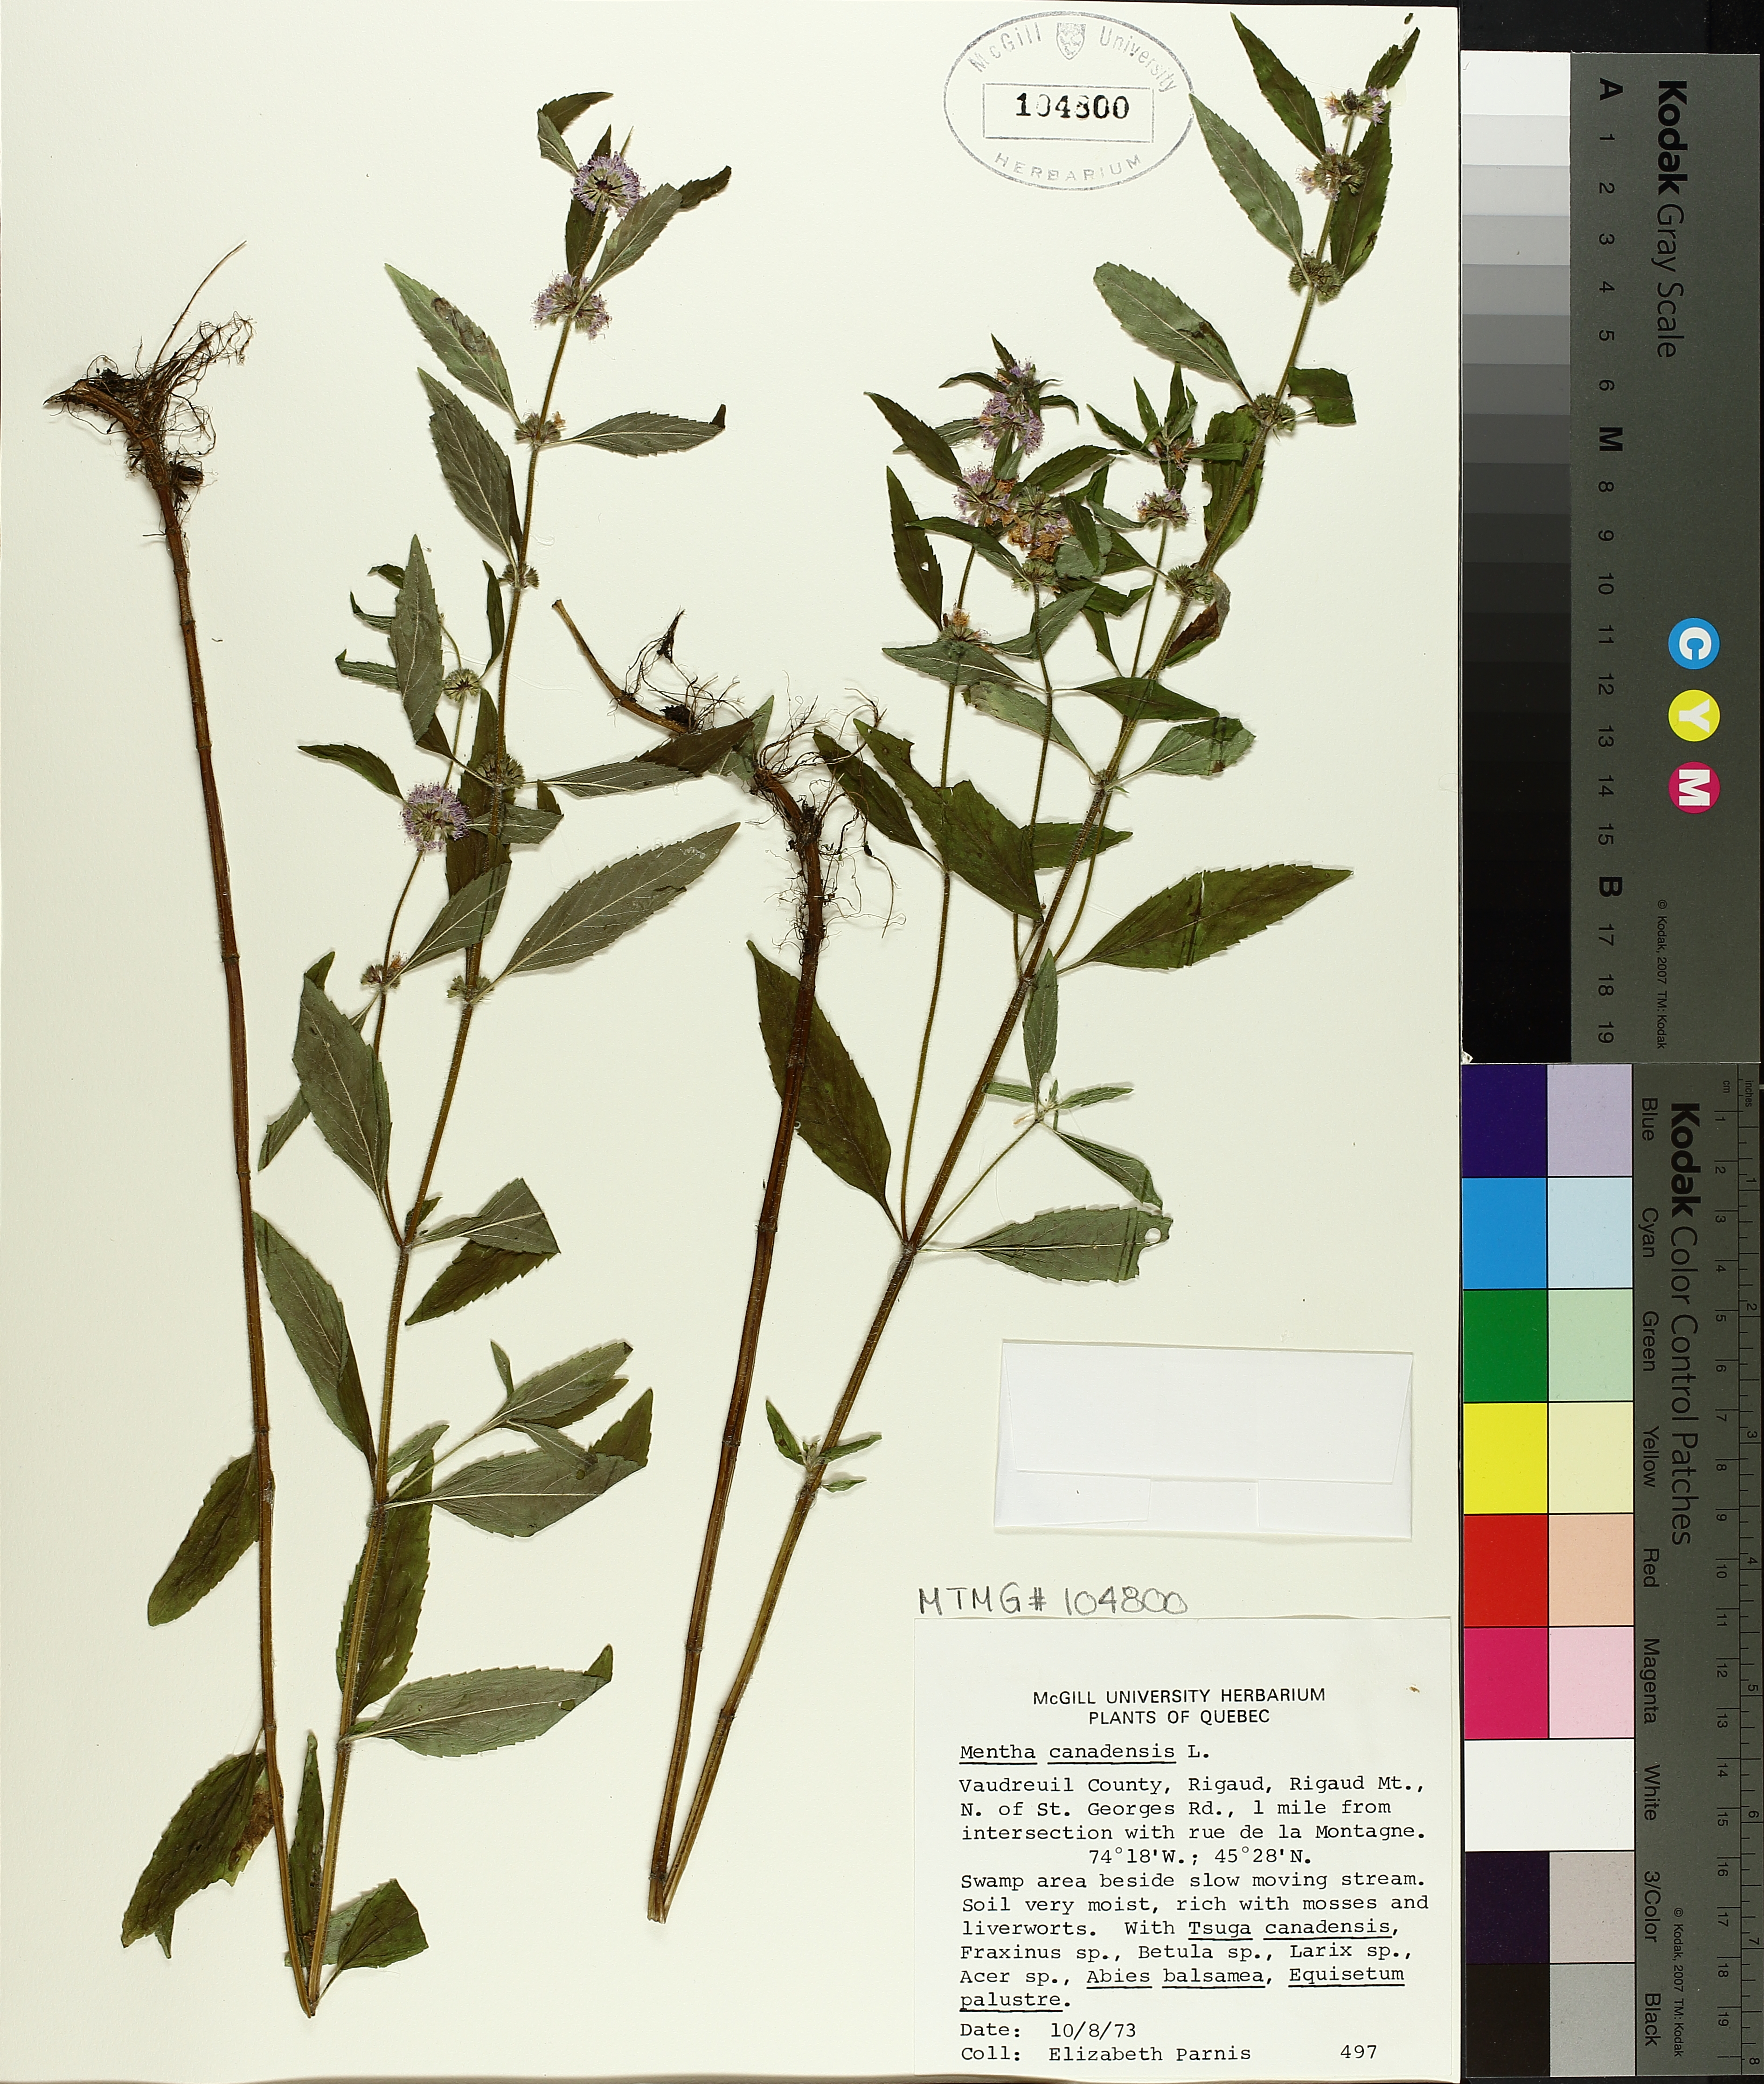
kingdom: Plantae
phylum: Tracheophyta
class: Magnoliopsida
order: Lamiales
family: Lamiaceae
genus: Mentha
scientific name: Mentha canadensis
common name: American corn mint
